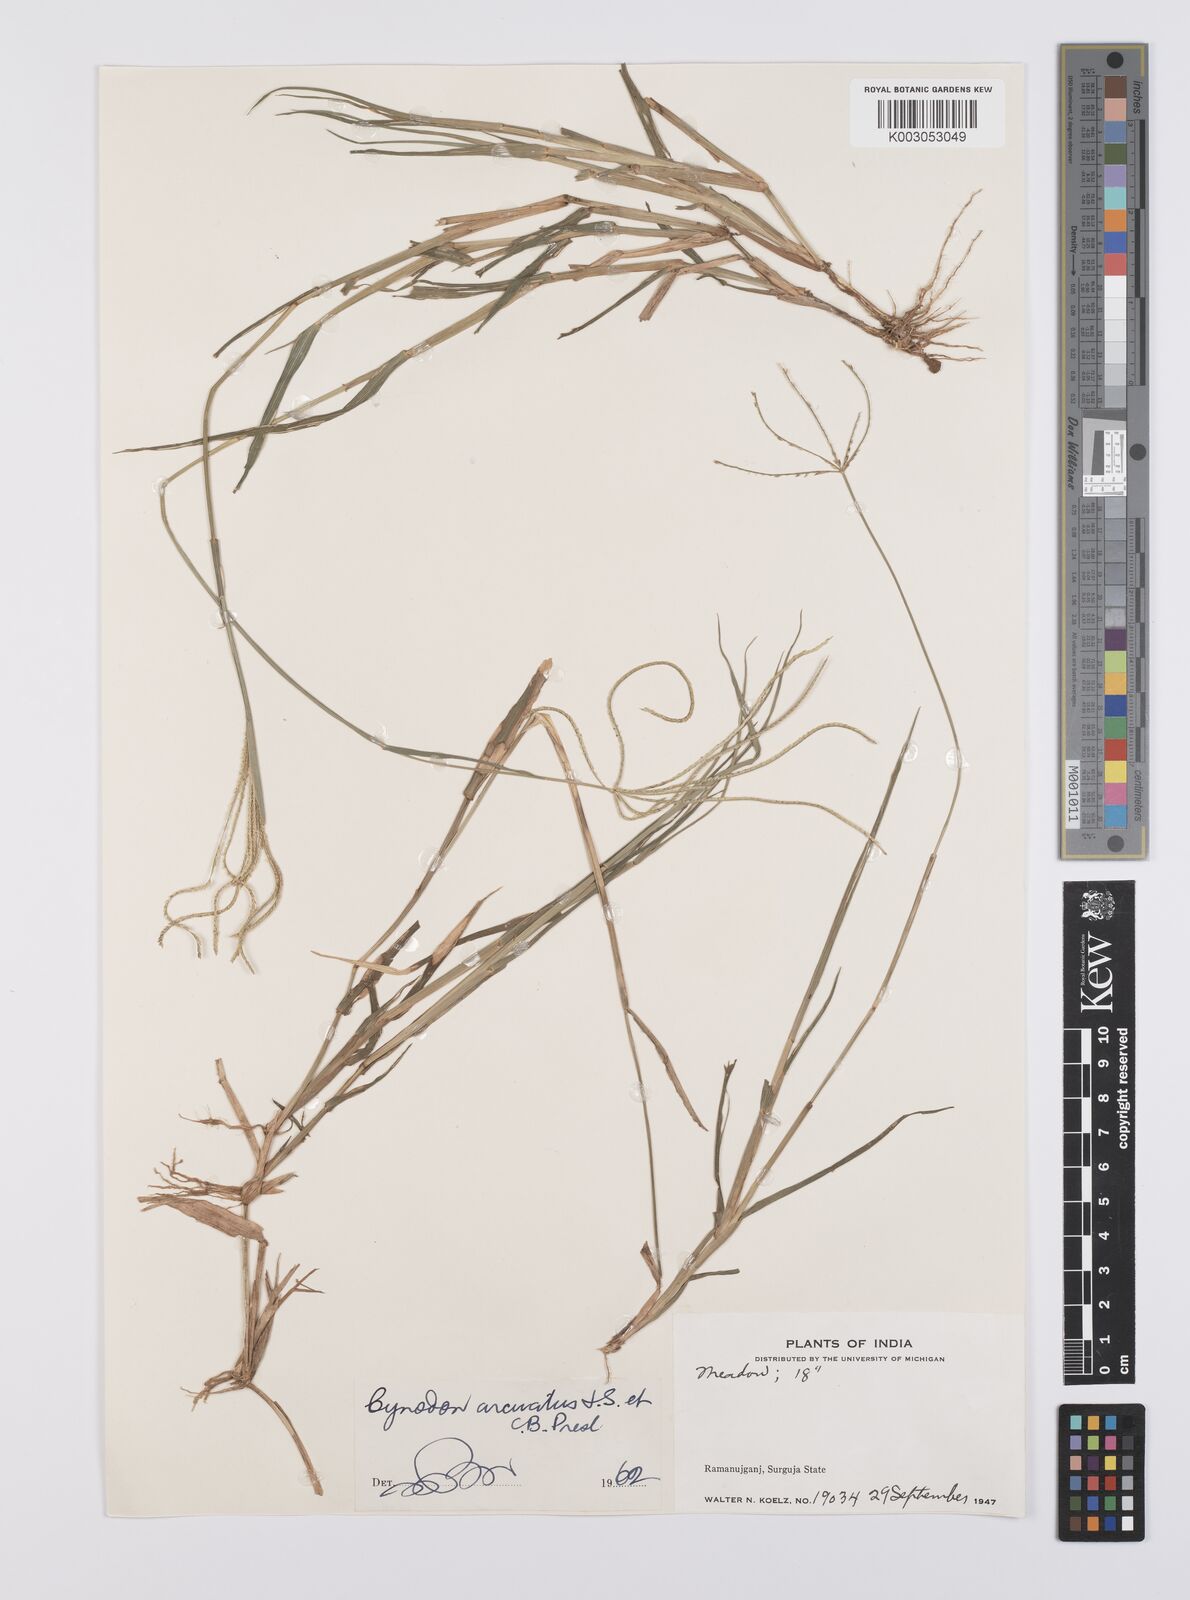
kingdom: Plantae
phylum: Tracheophyta
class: Liliopsida
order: Poales
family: Poaceae
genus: Cynodon
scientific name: Cynodon radiatus
